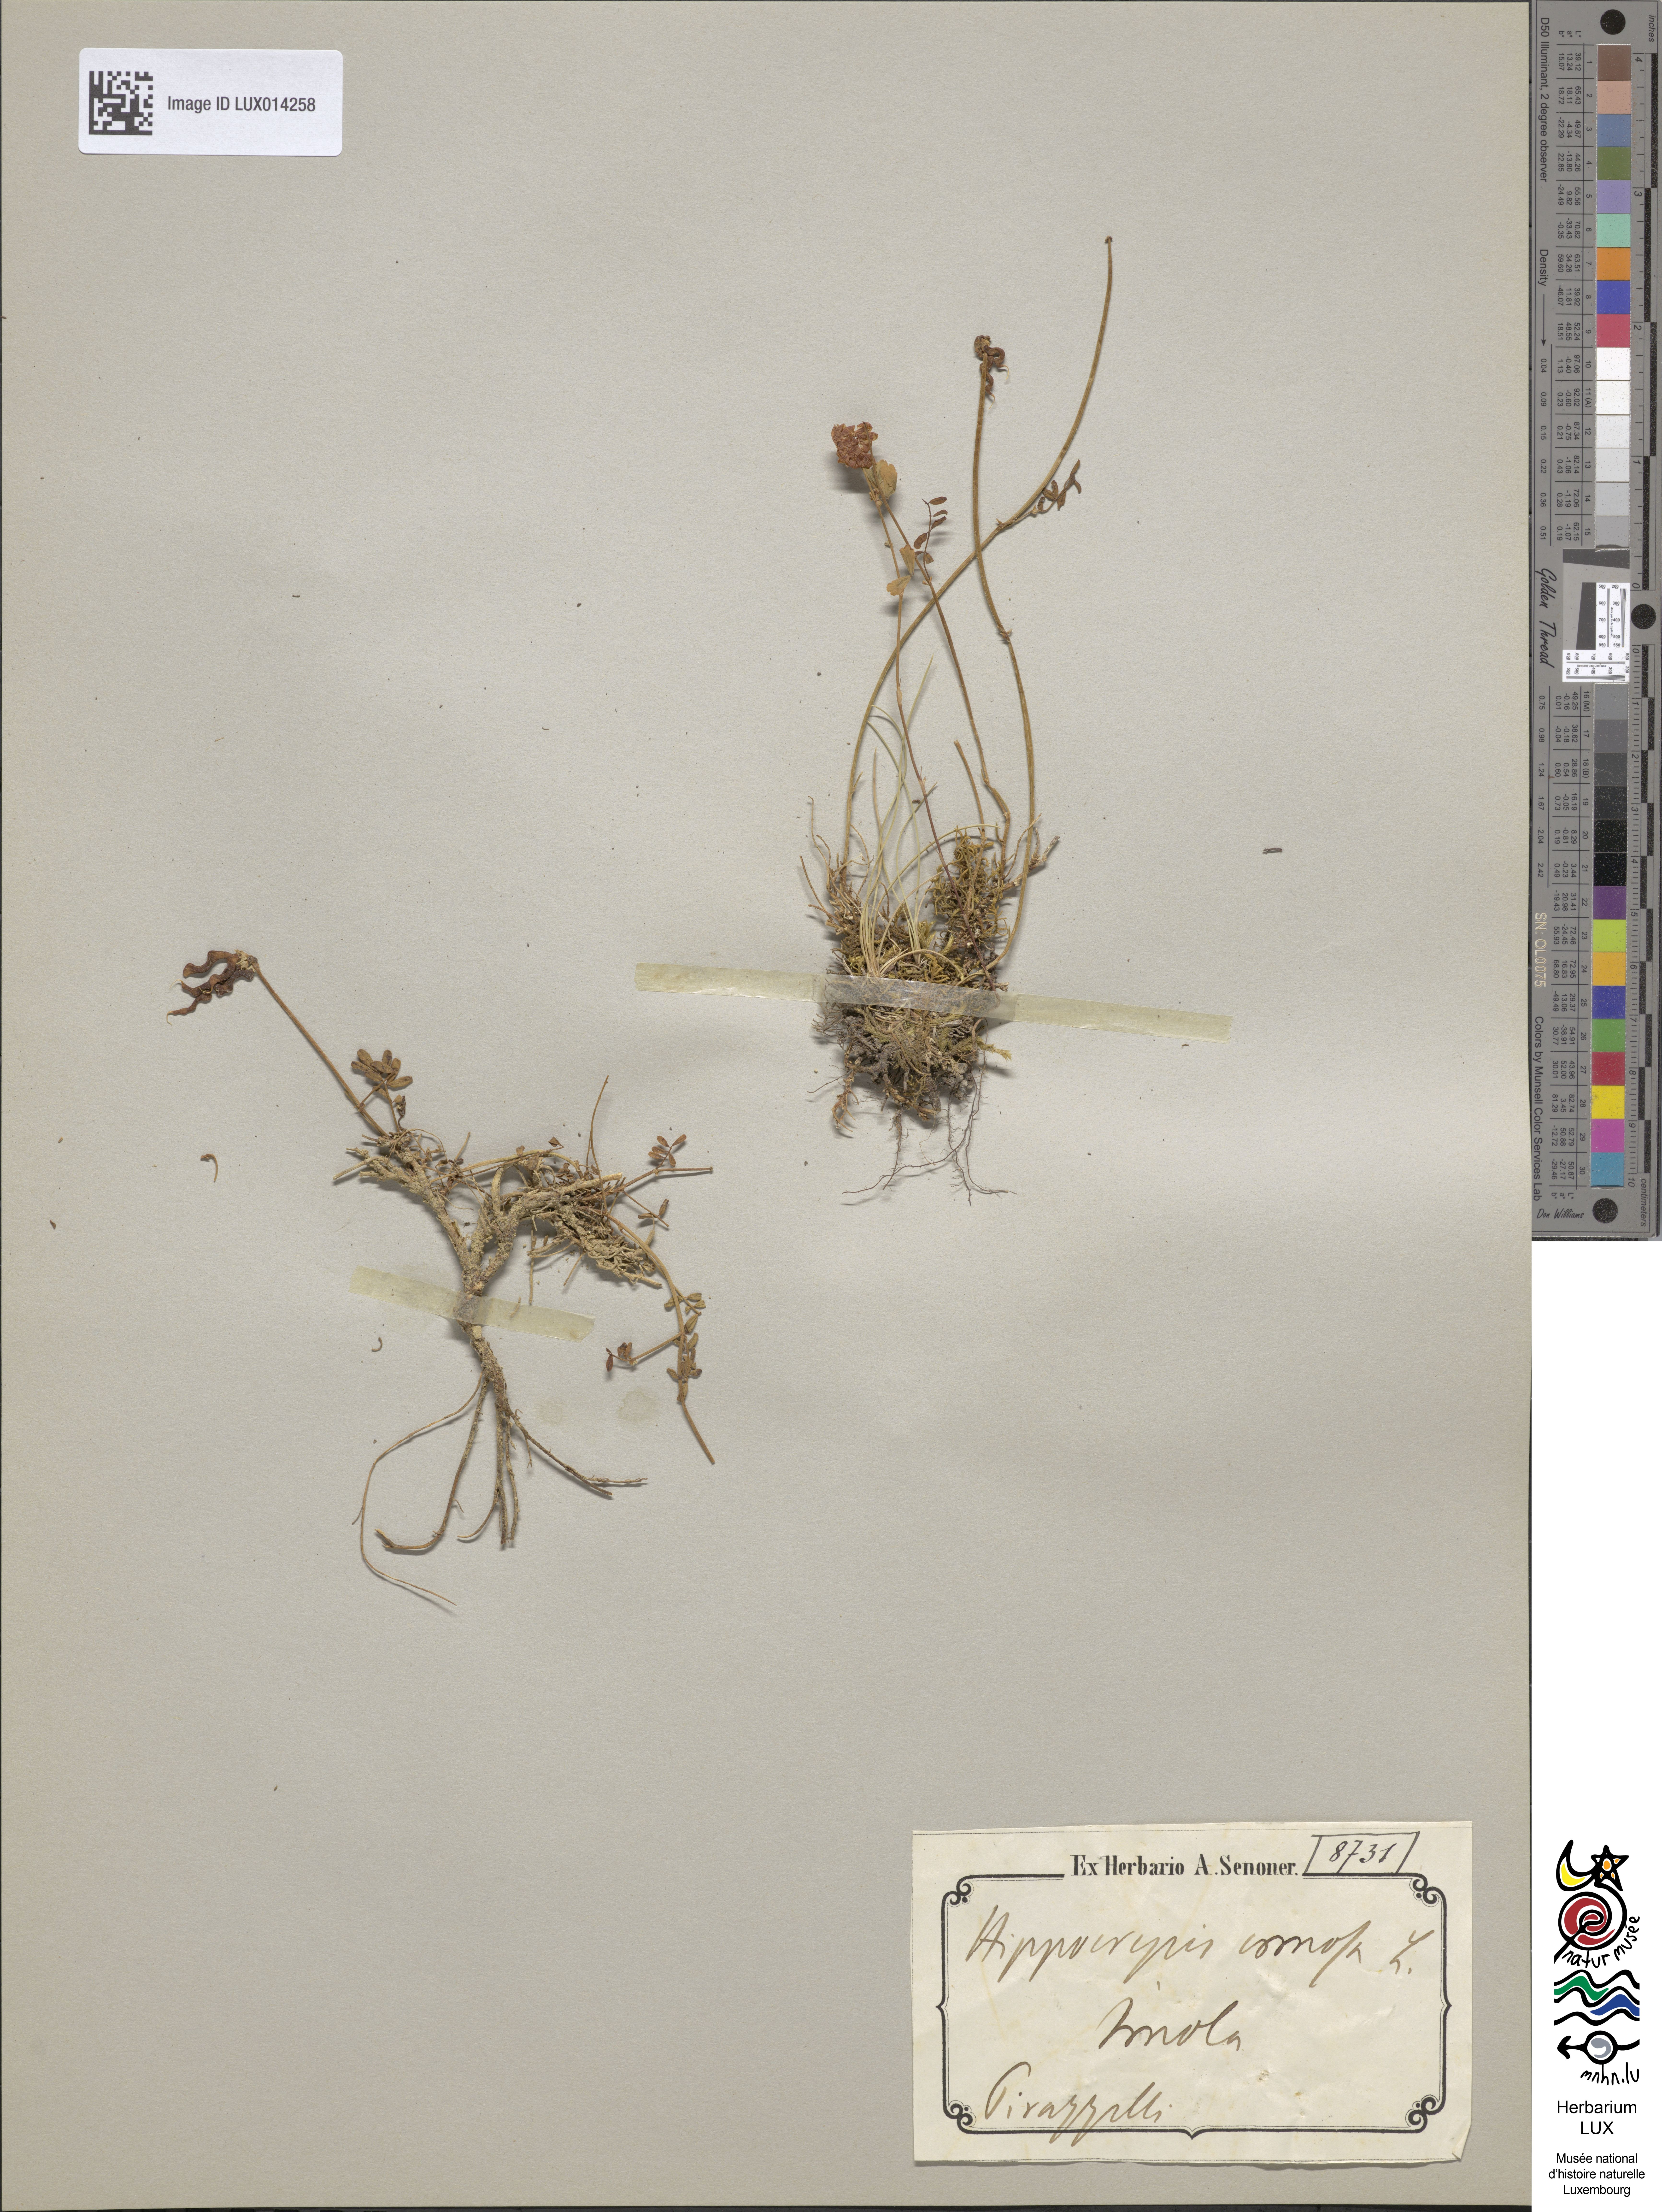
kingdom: Plantae
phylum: Tracheophyta
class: Magnoliopsida
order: Fabales
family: Fabaceae
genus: Hippocrepis
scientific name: Hippocrepis comosa
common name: Horseshoe vetch
